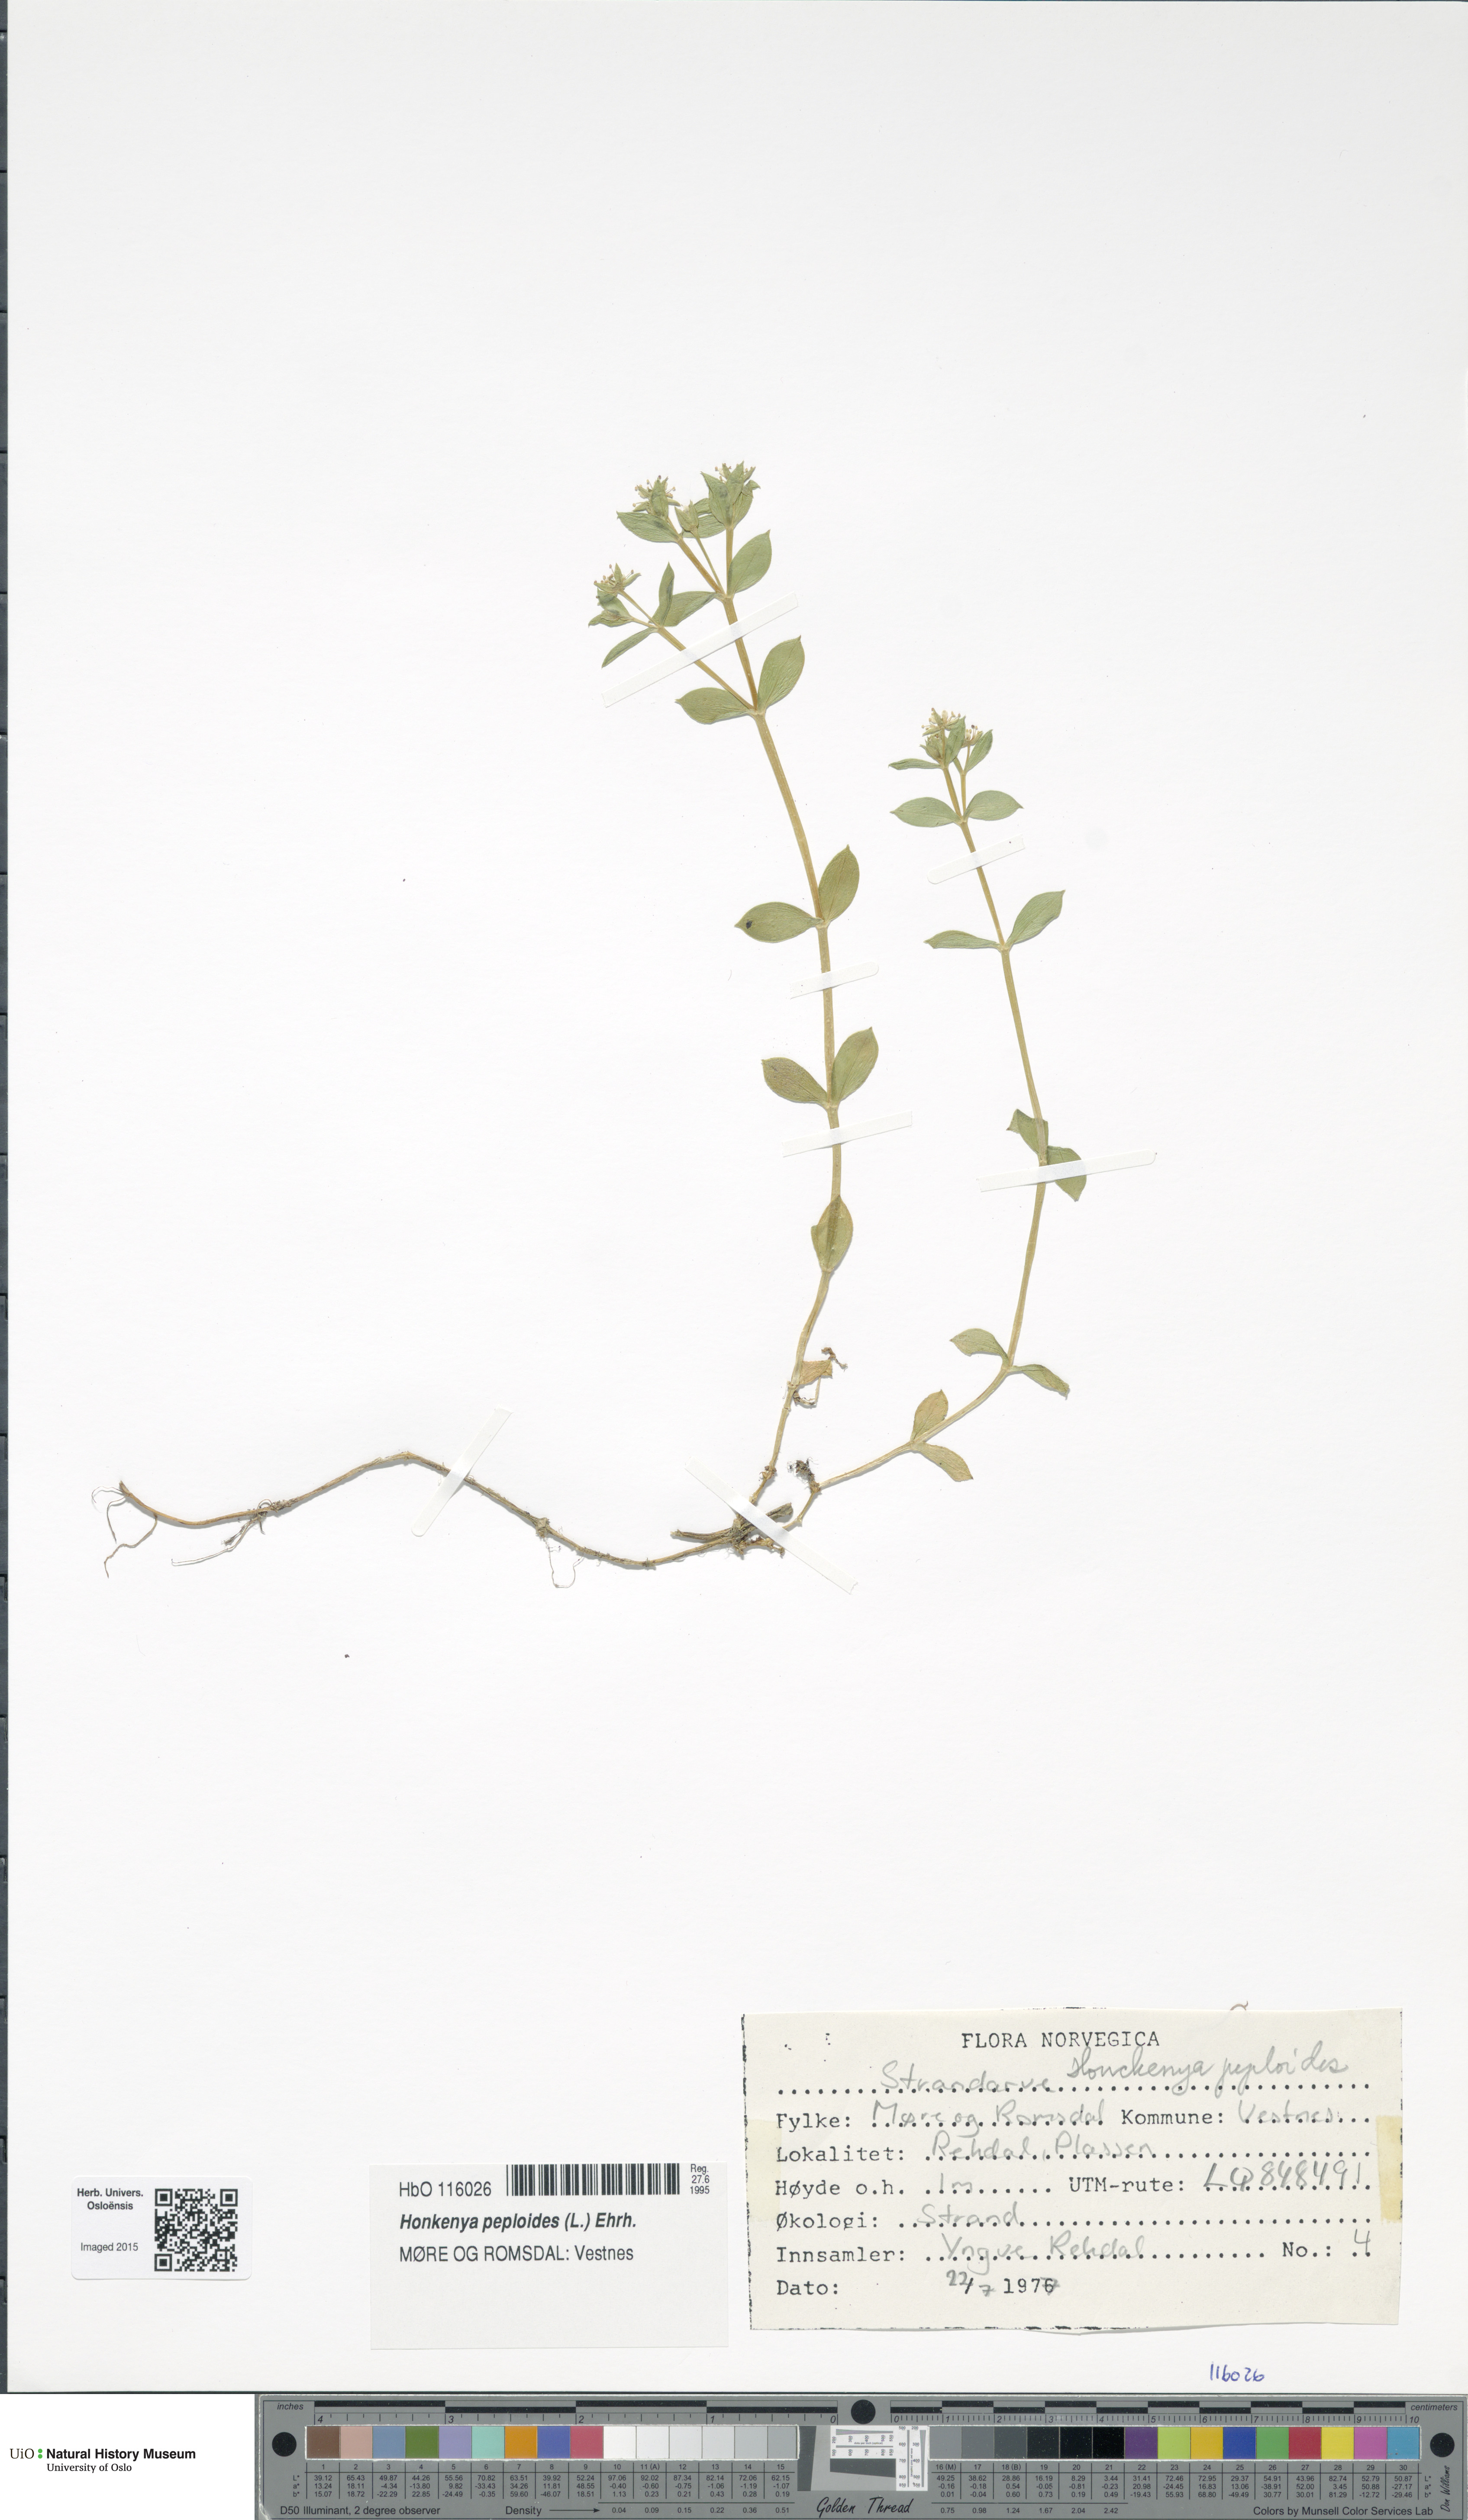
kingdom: Plantae
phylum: Tracheophyta
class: Magnoliopsida
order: Caryophyllales
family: Caryophyllaceae
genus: Honckenya
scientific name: Honckenya peploides
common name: Sea sandwort
